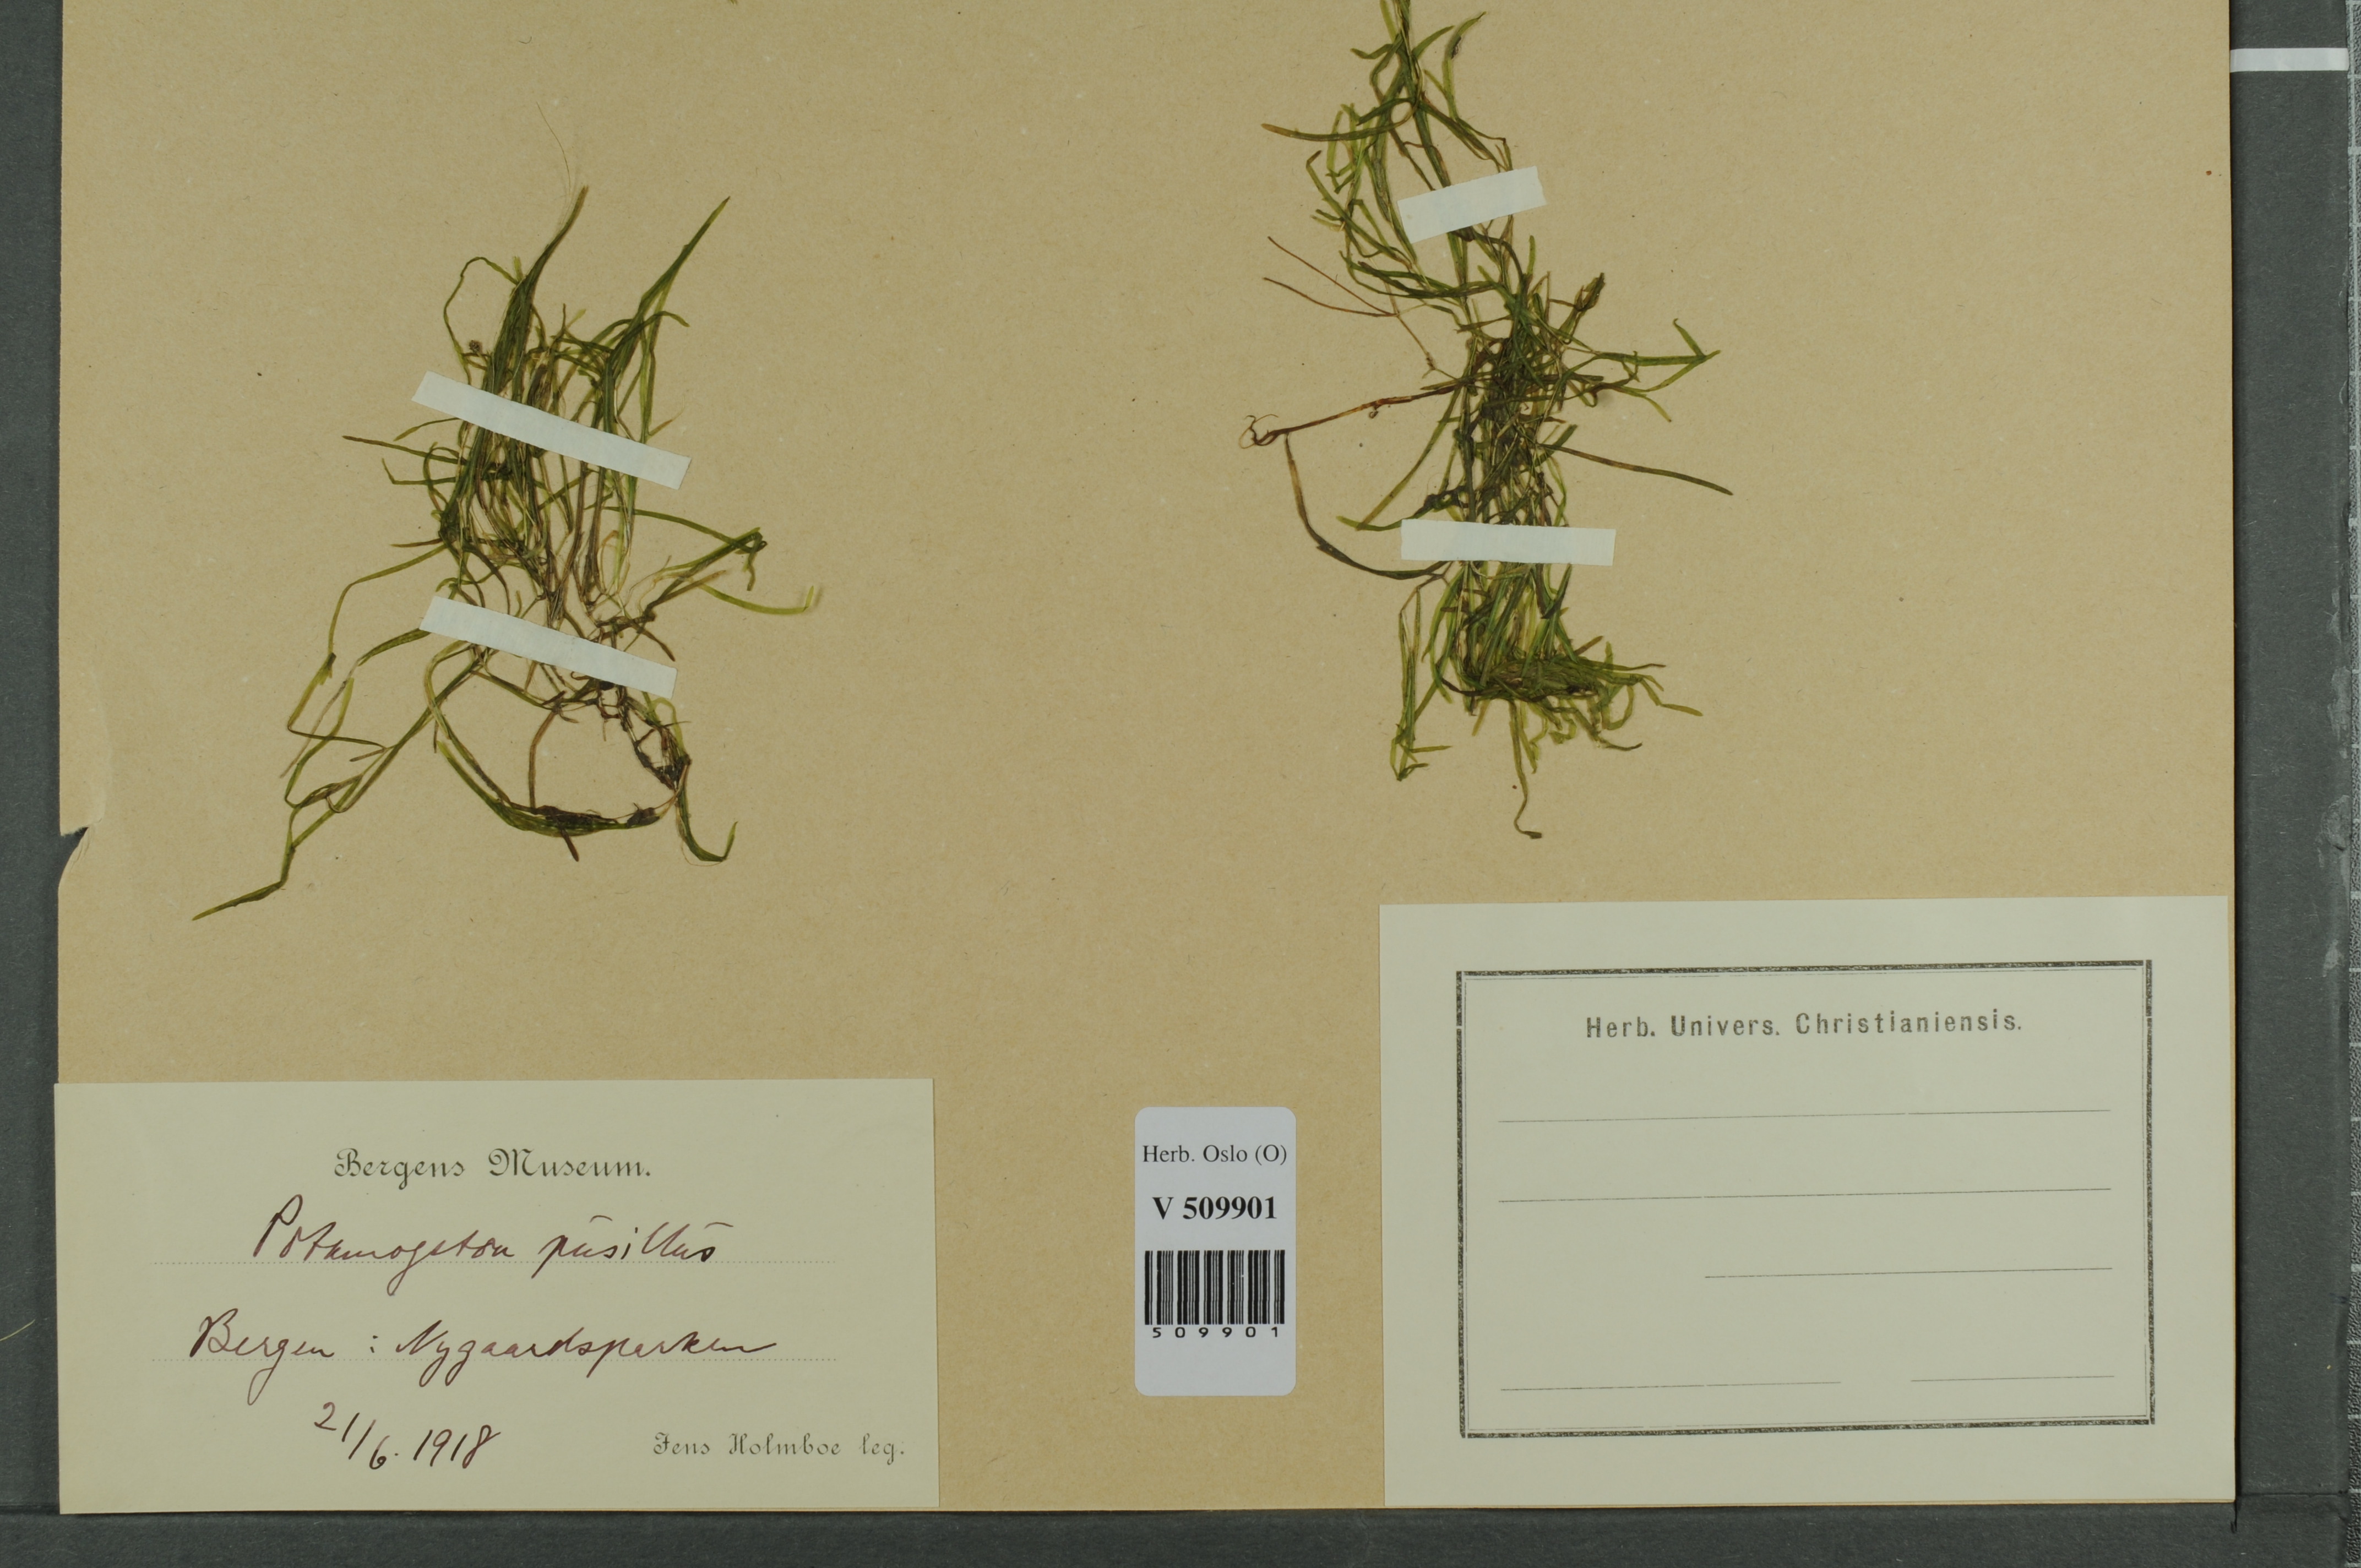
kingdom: Plantae
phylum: Tracheophyta
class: Liliopsida
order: Alismatales
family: Potamogetonaceae
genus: Potamogeton
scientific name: Potamogeton berchtoldii
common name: Small pondweed
